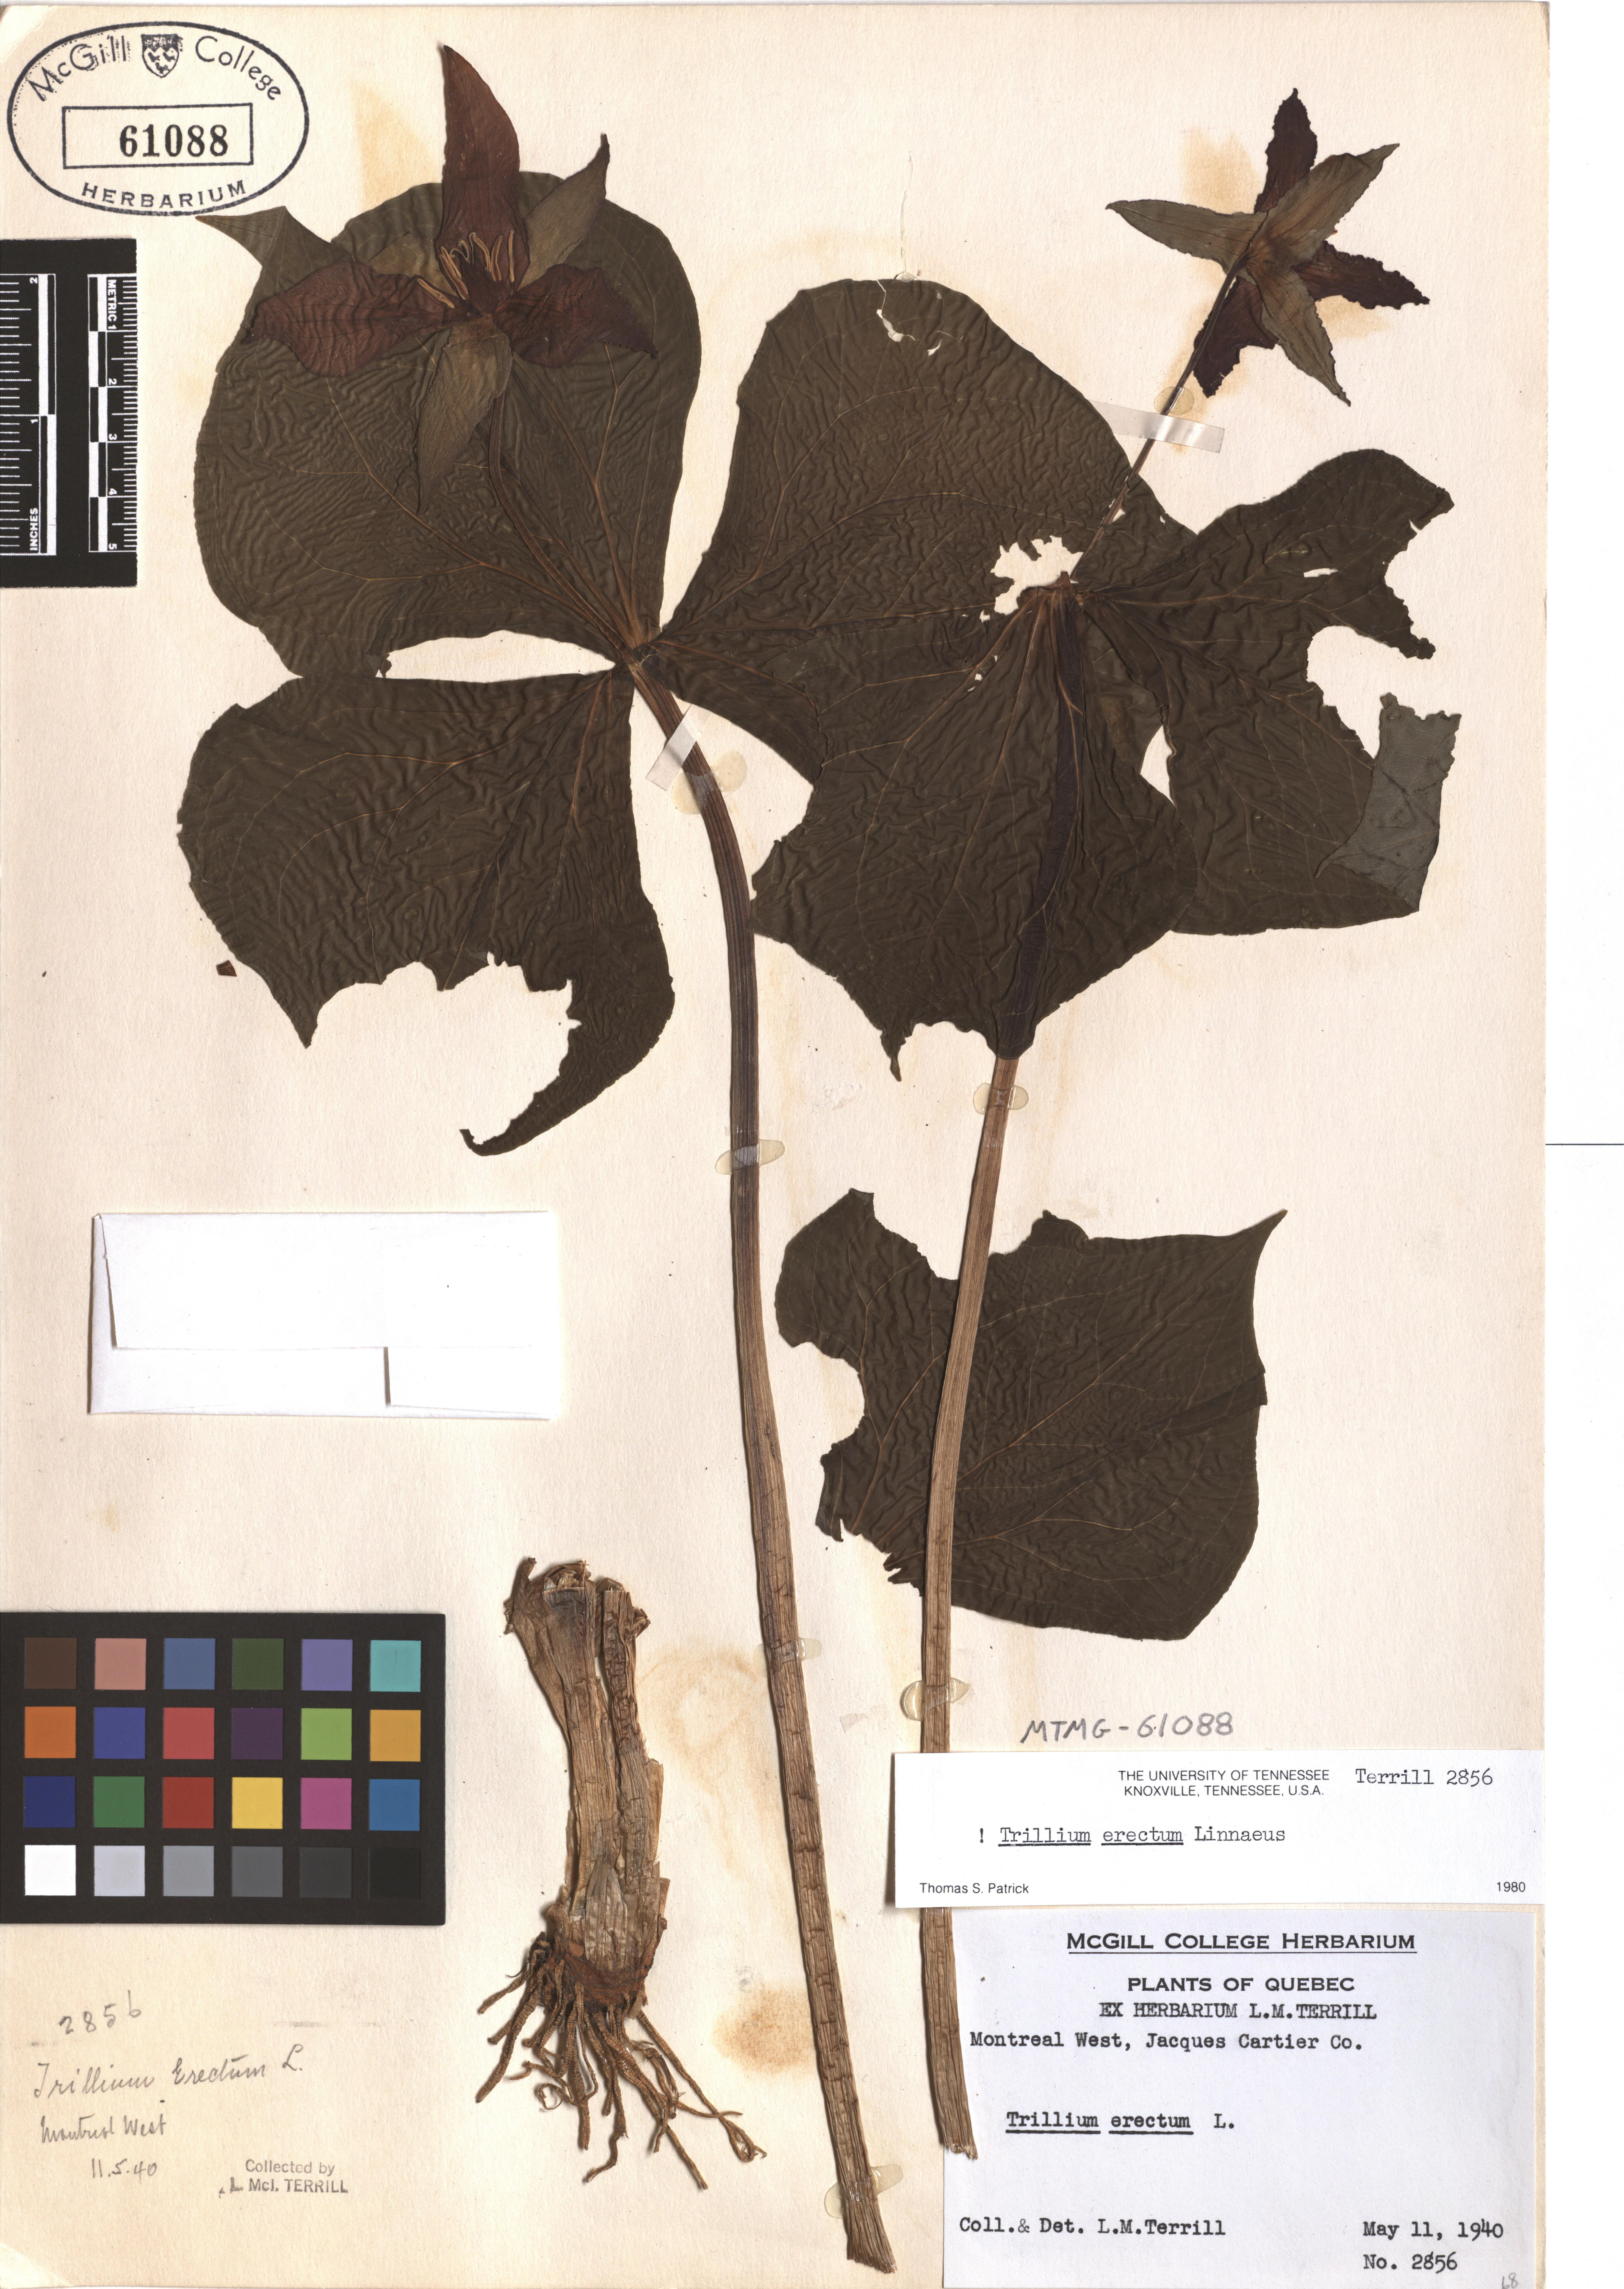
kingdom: Plantae
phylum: Tracheophyta
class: Liliopsida
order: Liliales
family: Melanthiaceae
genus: Trillium
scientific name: Trillium erectum
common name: Purple trillium
